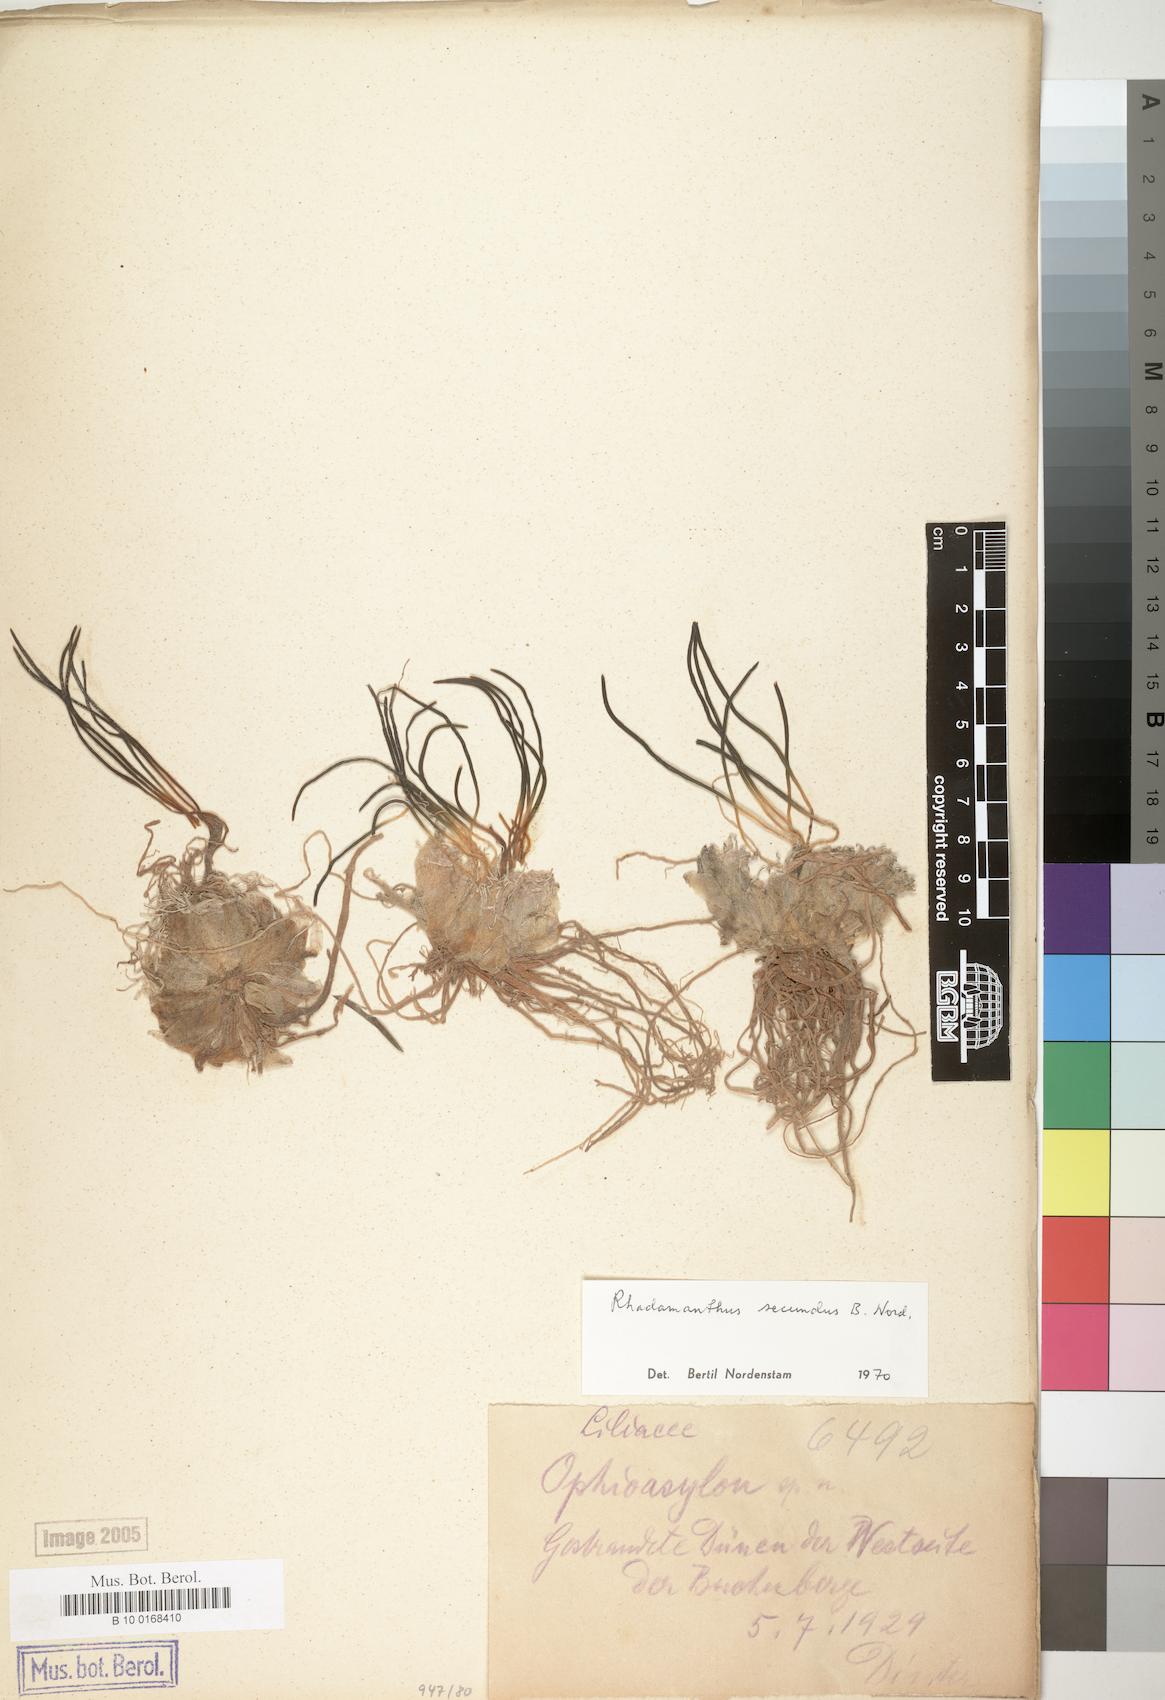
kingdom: Plantae
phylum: Tracheophyta
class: Liliopsida
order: Asparagales
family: Asparagaceae
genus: Drimia
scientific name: Drimia secunda
